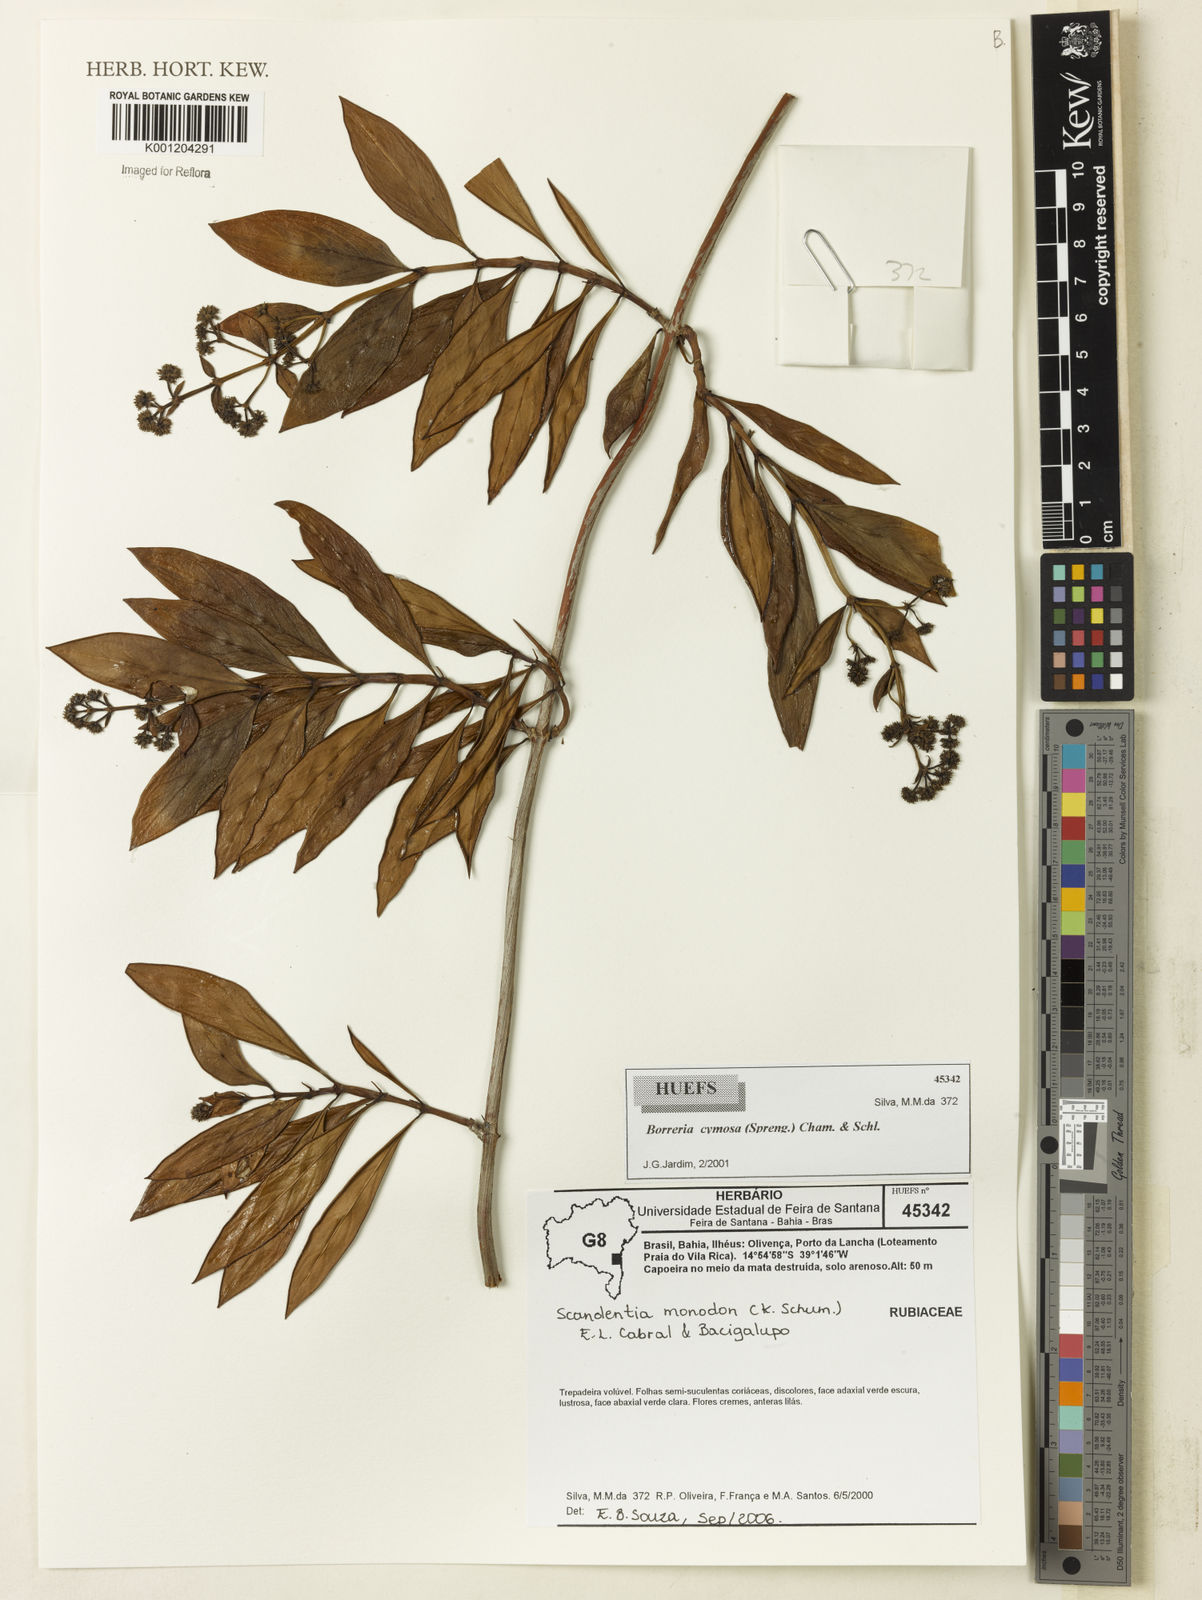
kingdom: Plantae
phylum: Tracheophyta
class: Magnoliopsida
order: Gentianales
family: Rubiaceae
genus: Denscantia
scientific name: Denscantia monodon
